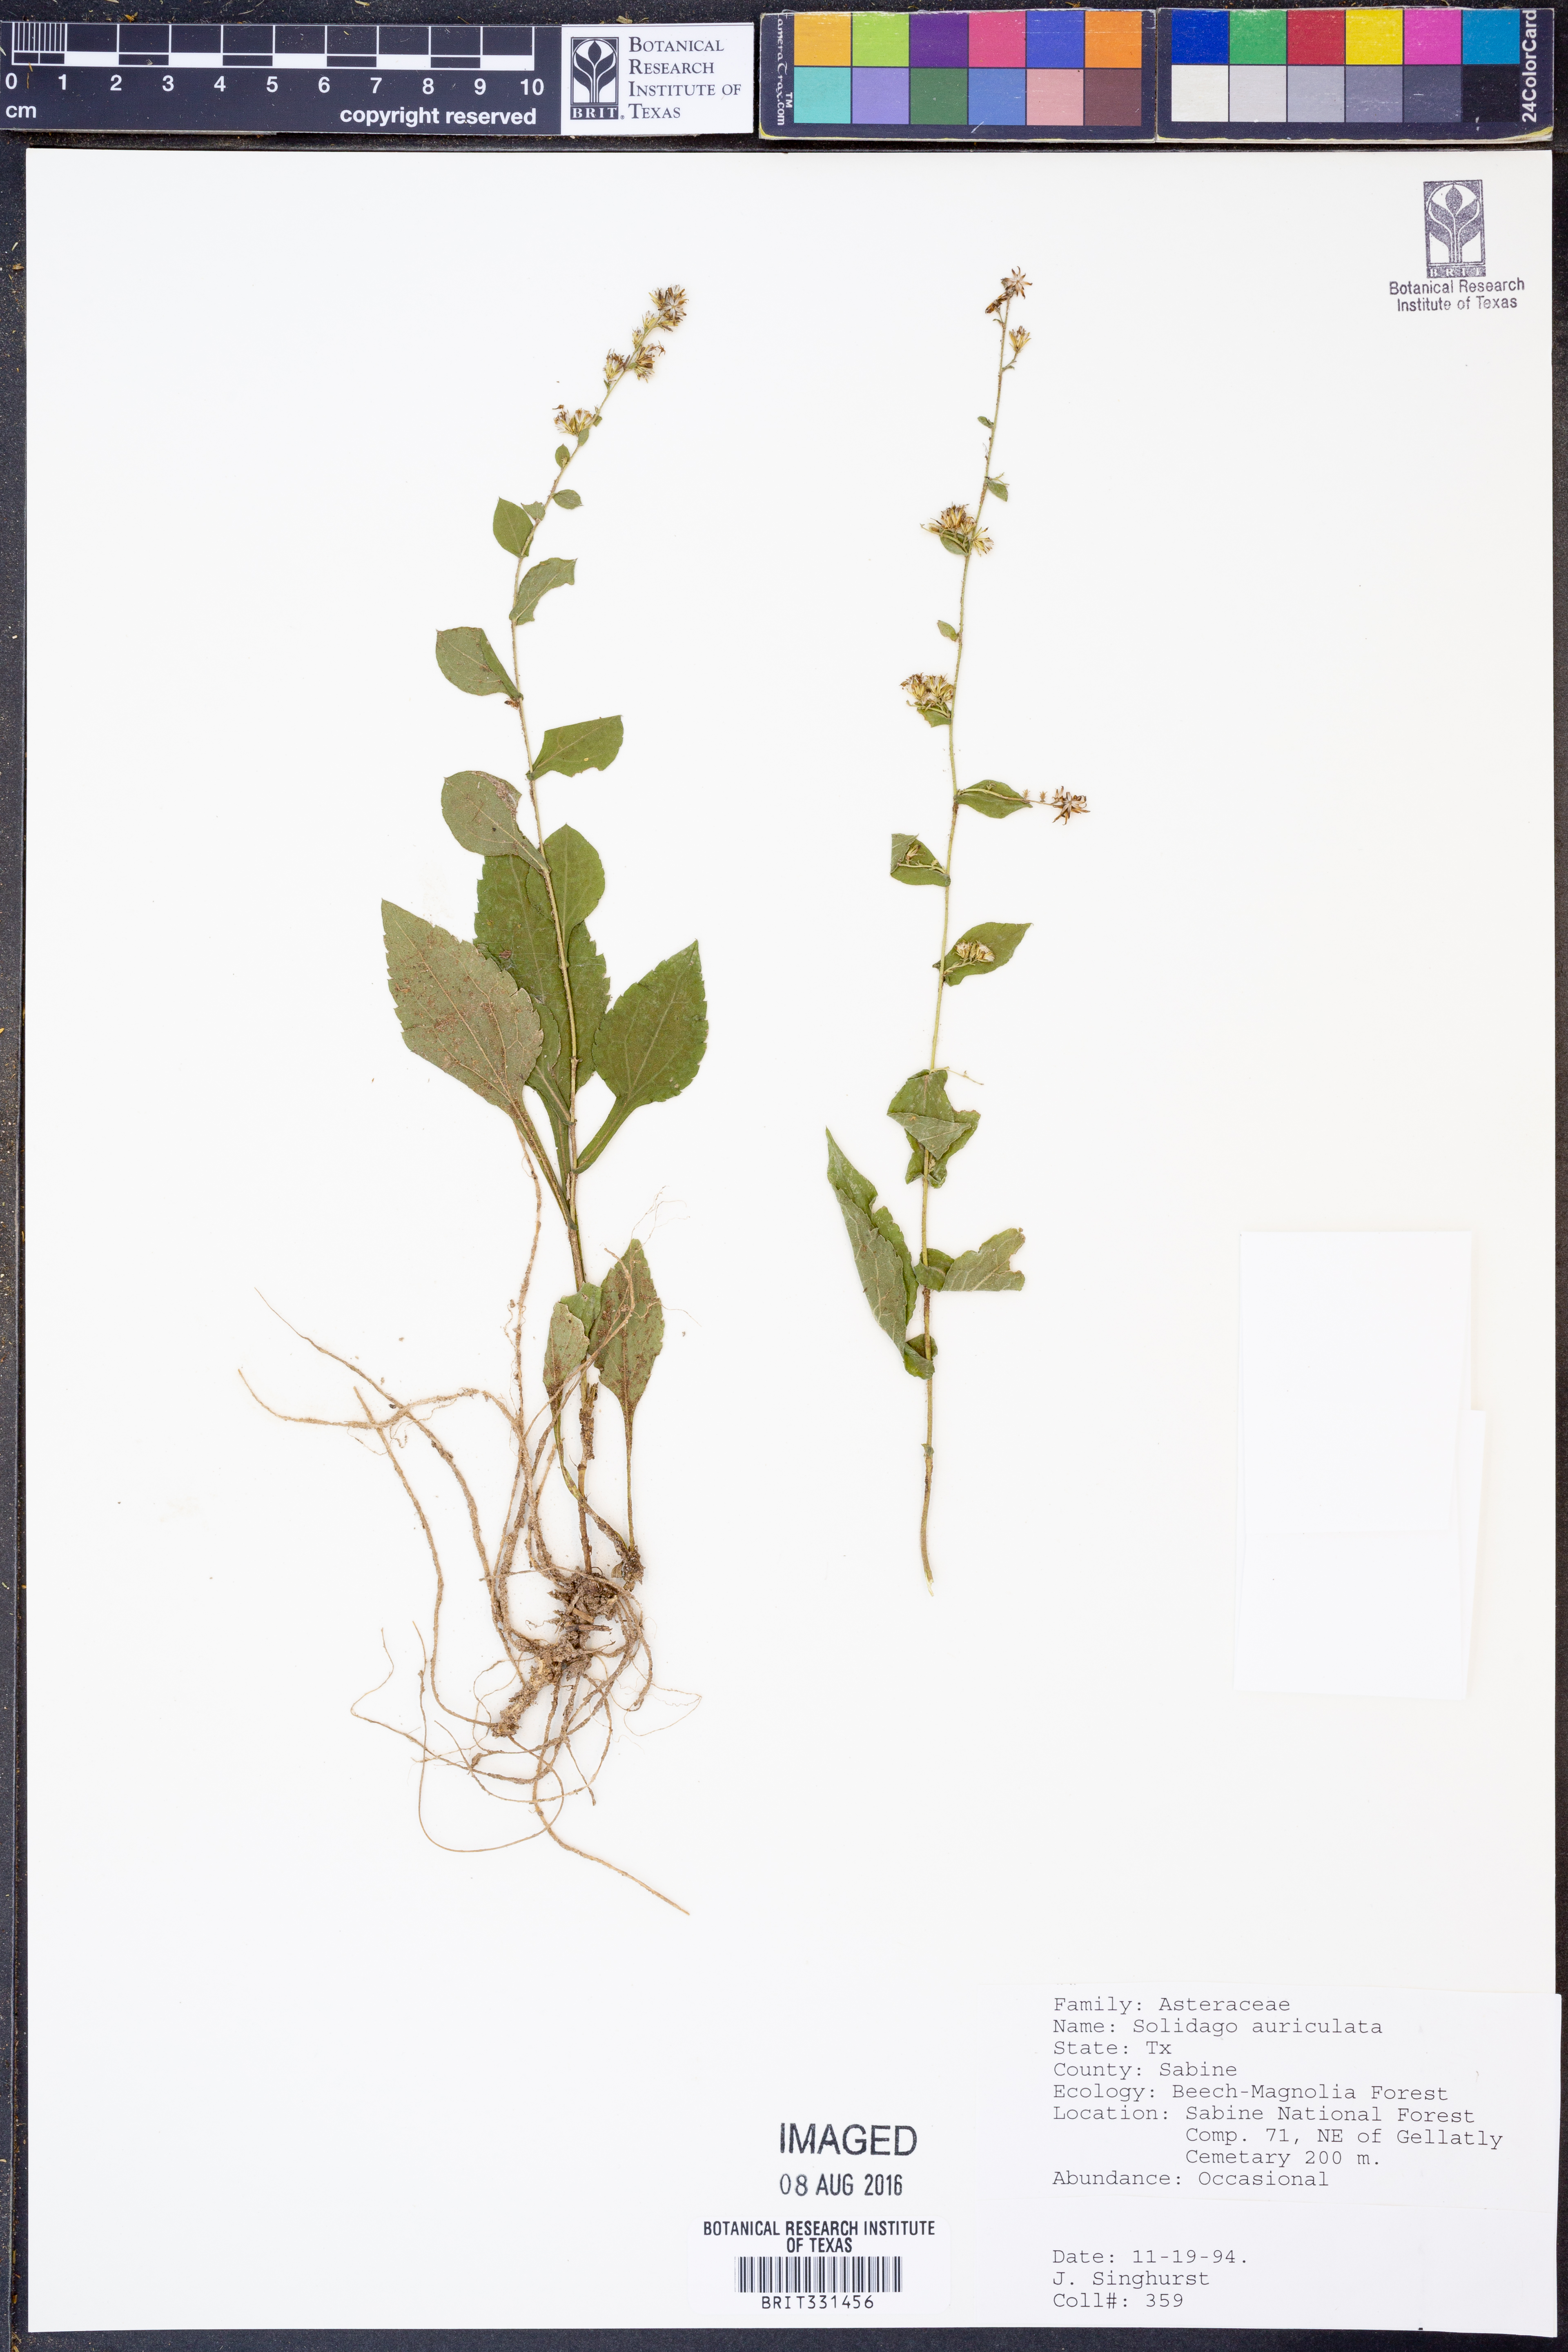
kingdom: Plantae
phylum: Tracheophyta
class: Magnoliopsida
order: Asterales
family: Asteraceae
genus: Solidago
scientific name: Solidago auriculata
